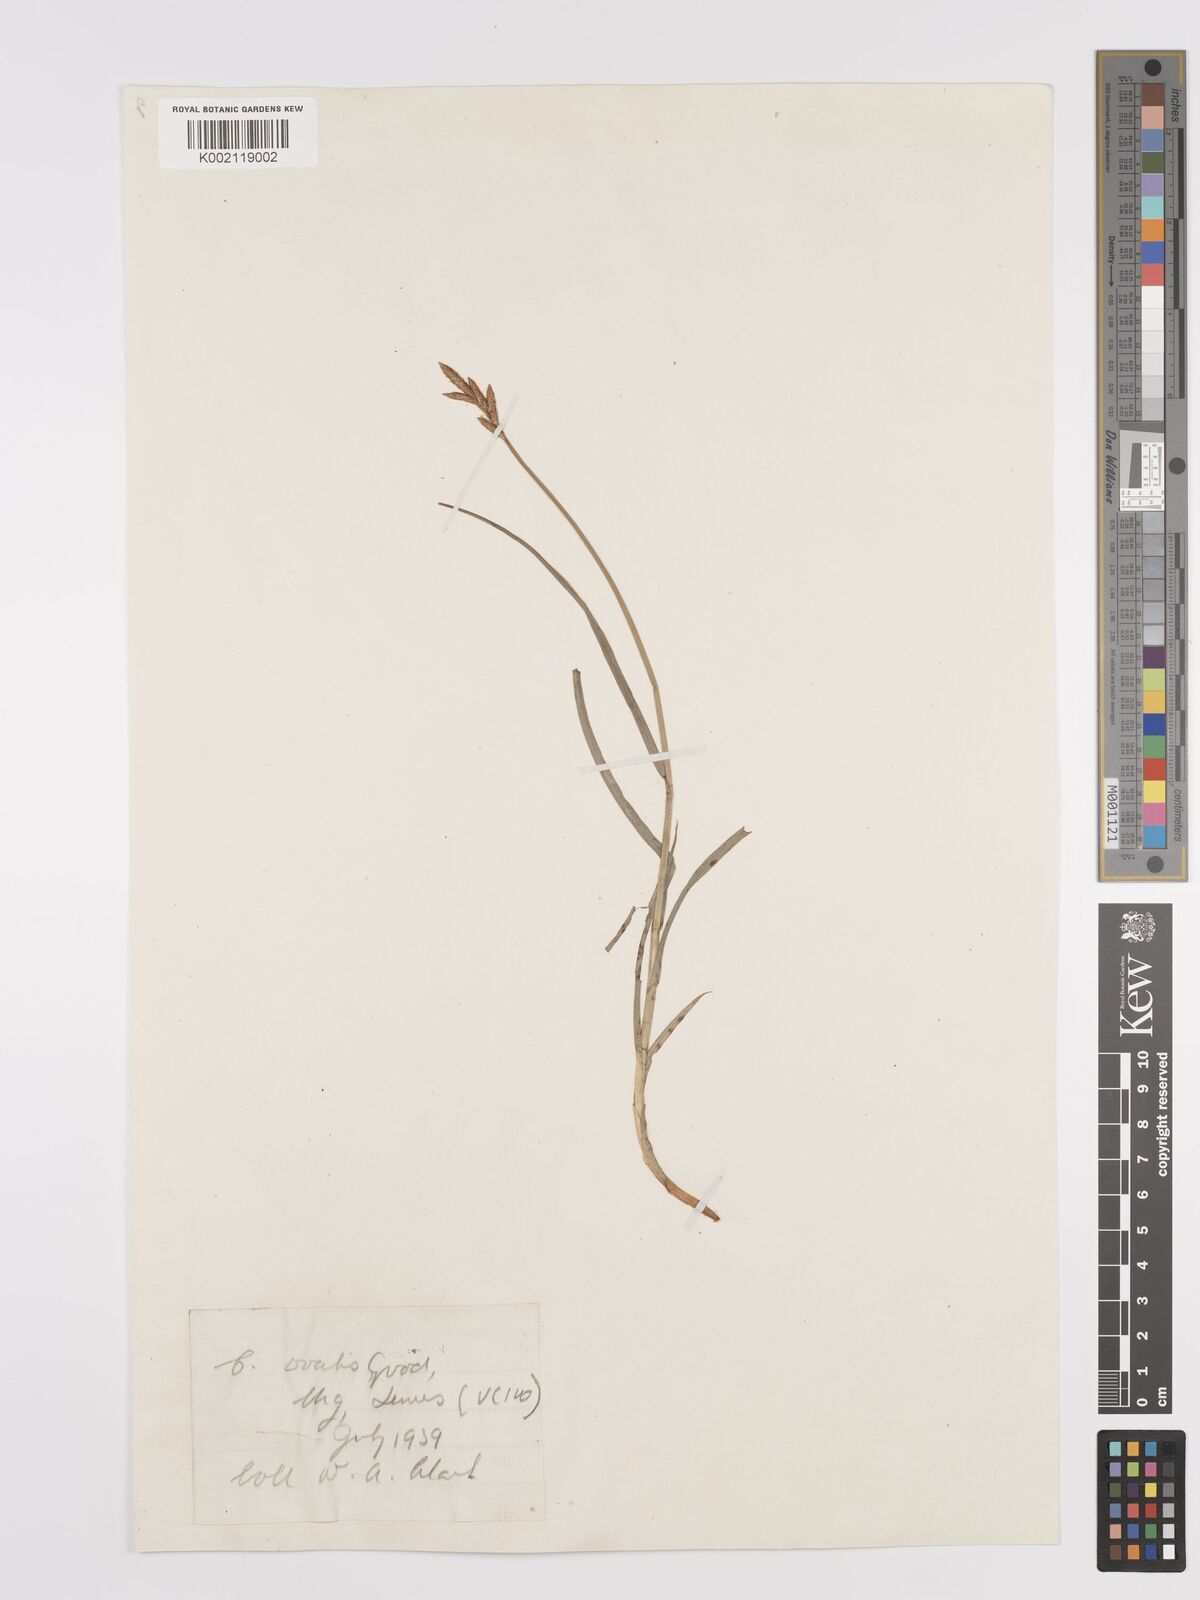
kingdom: Plantae
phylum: Tracheophyta
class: Liliopsida
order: Poales
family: Cyperaceae
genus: Carex
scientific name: Carex leporina
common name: Oval sedge
